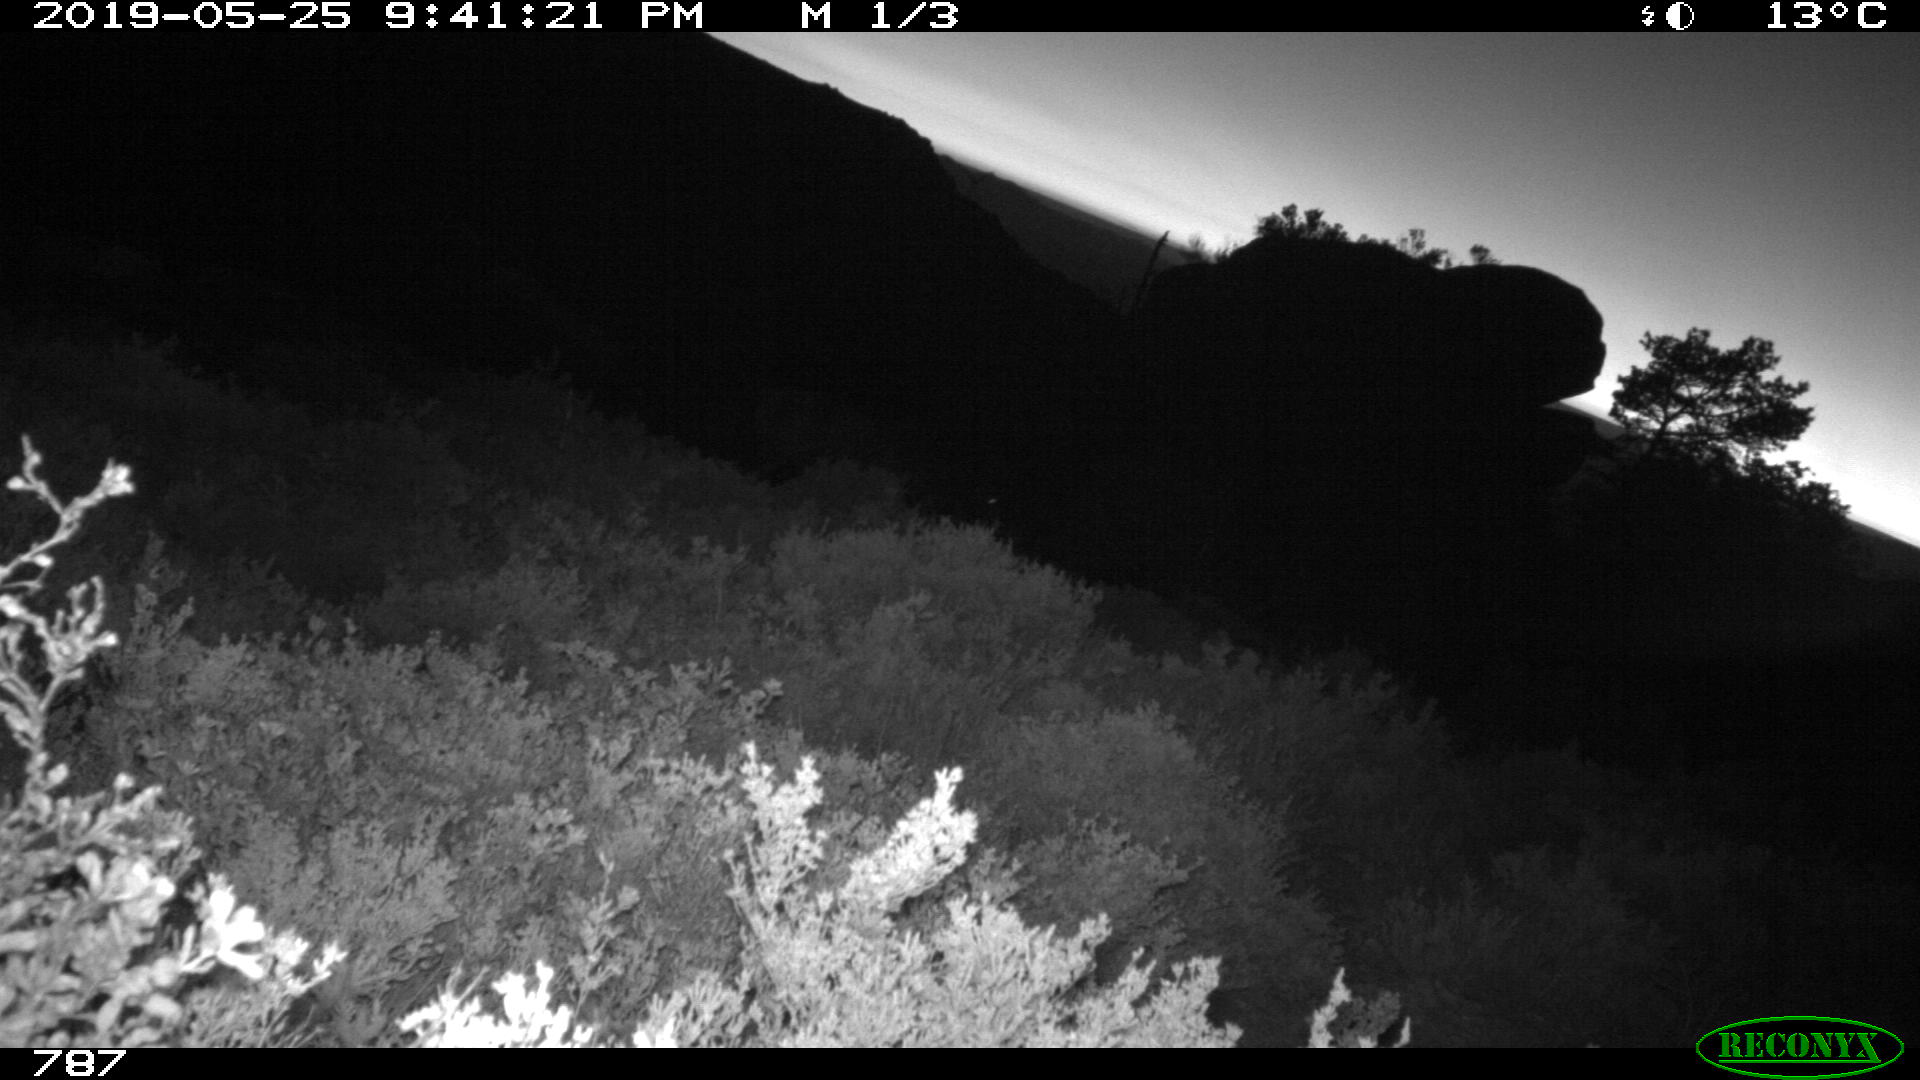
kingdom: Animalia
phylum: Chordata
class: Mammalia
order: Perissodactyla
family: Equidae
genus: Equus
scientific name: Equus caballus
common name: Horse
